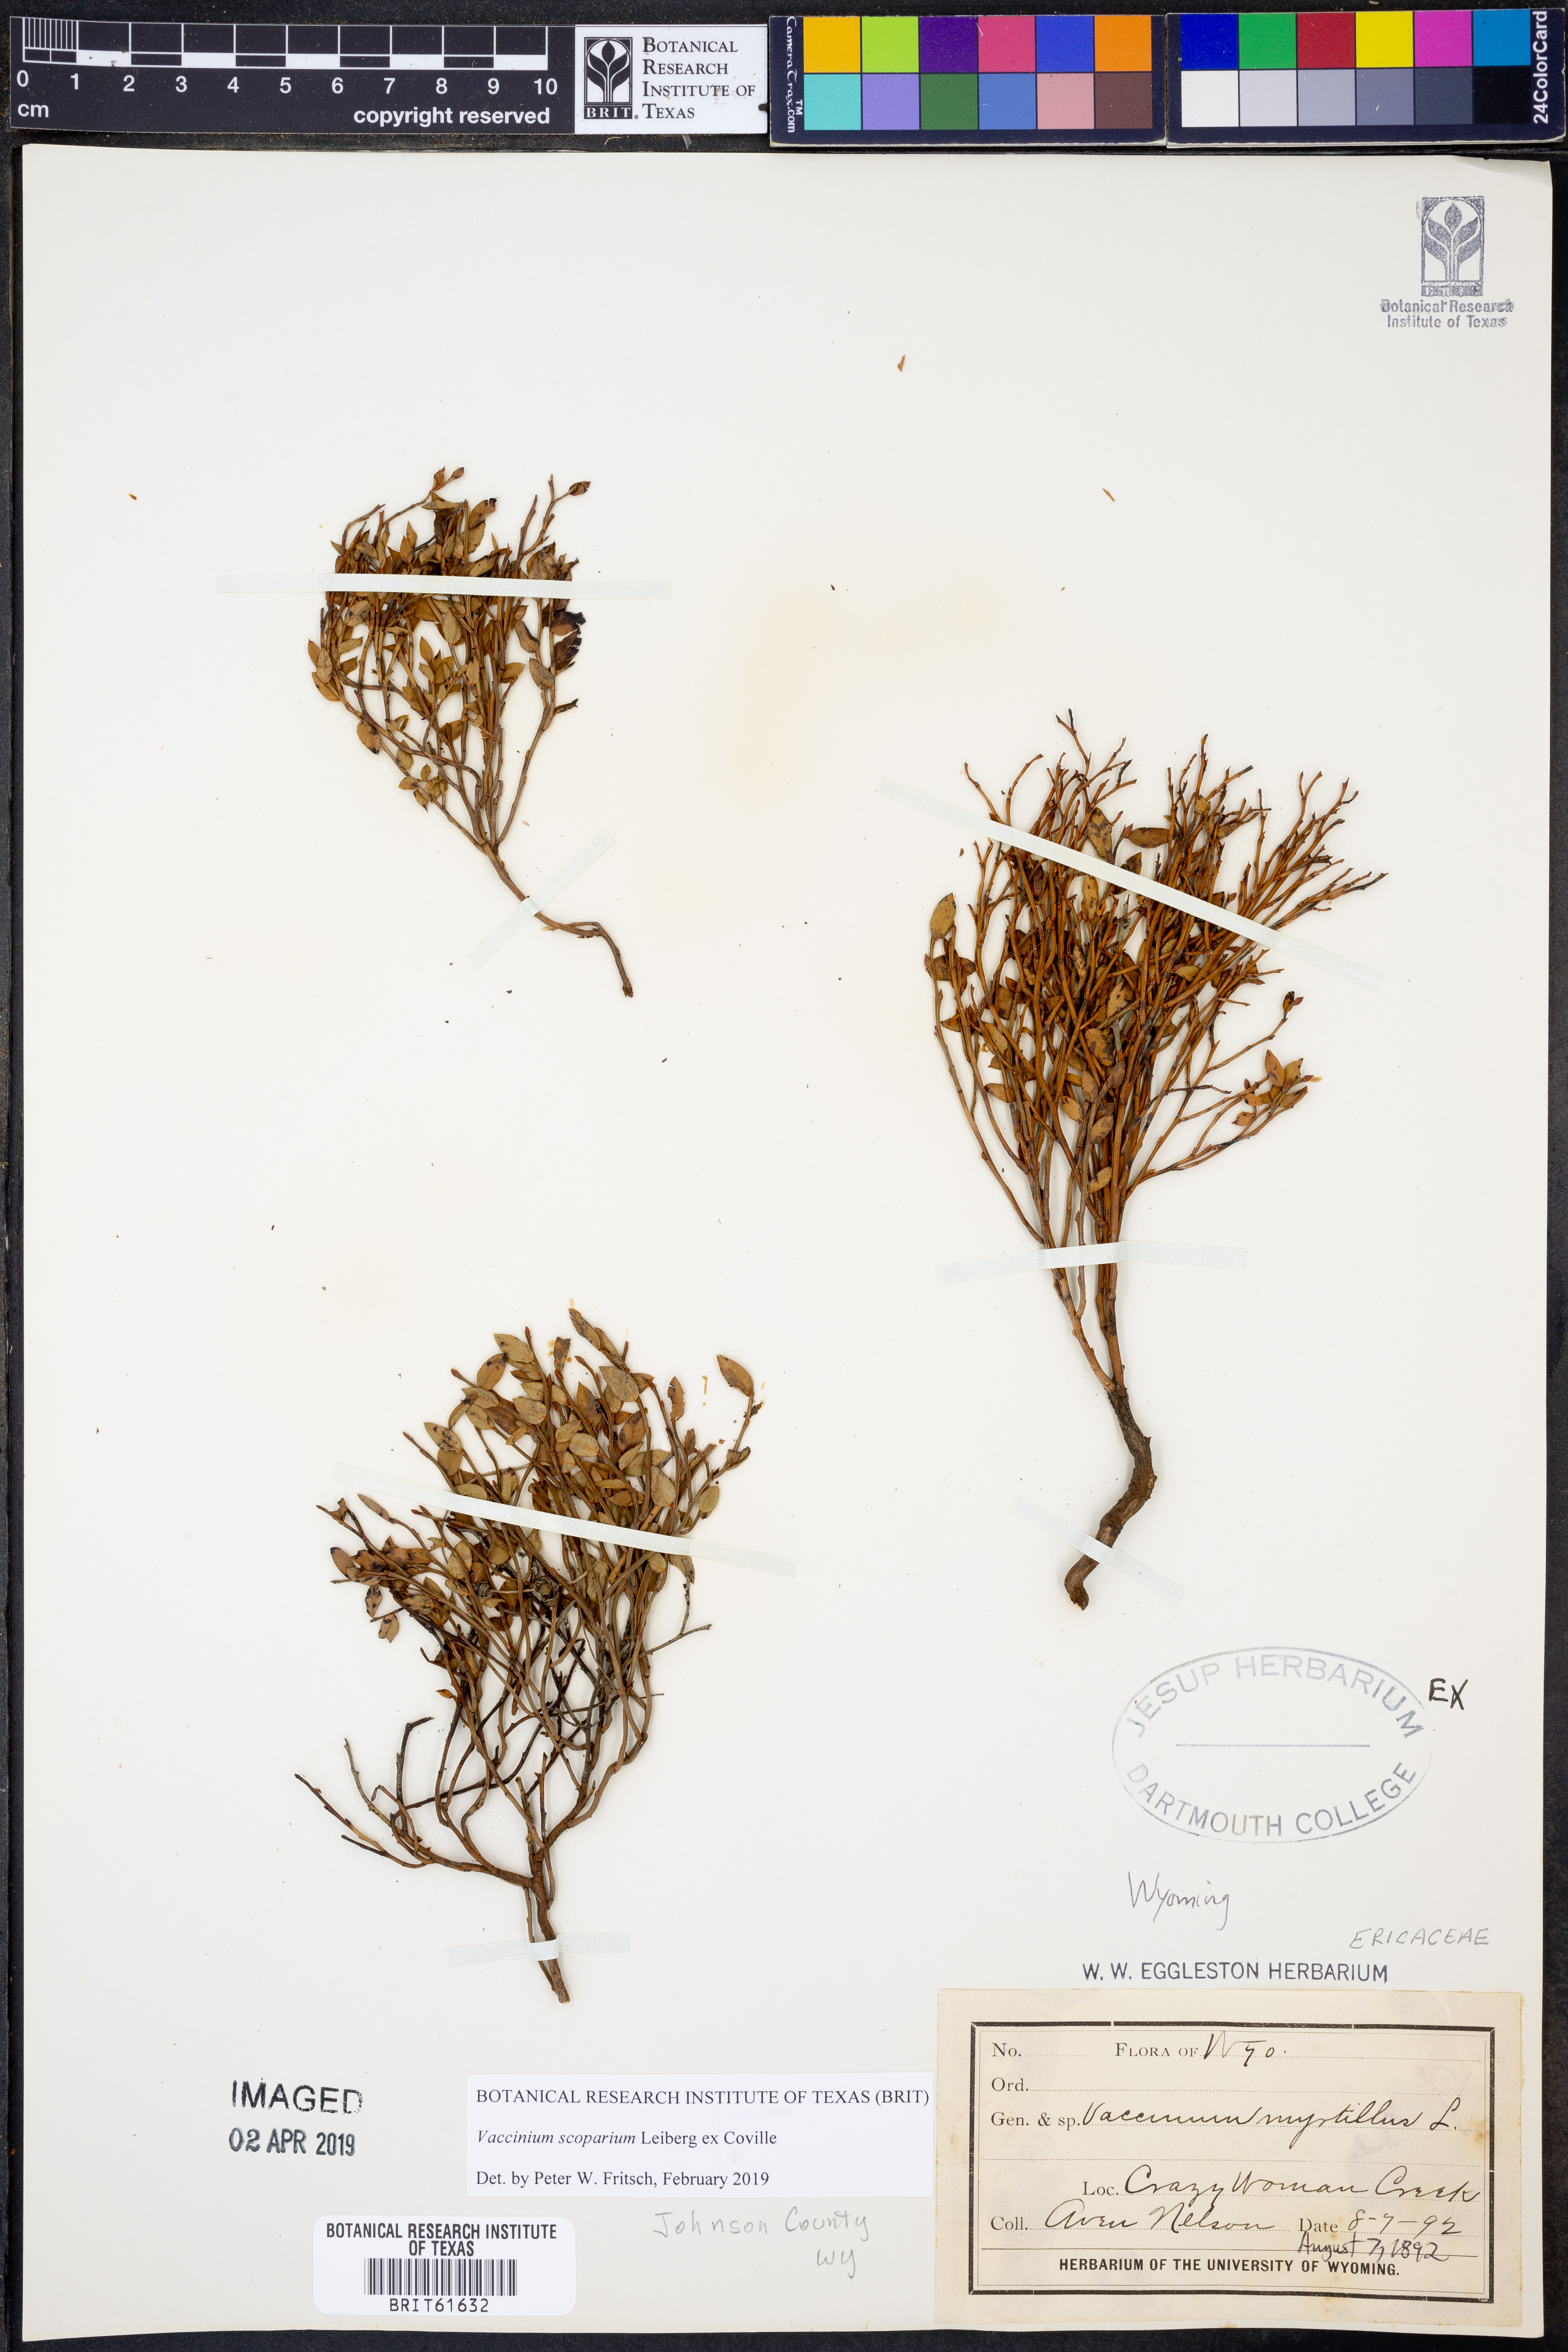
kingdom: Plantae
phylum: Tracheophyta
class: Magnoliopsida
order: Ericales
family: Ericaceae
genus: Vaccinium
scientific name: Vaccinium scoparium
